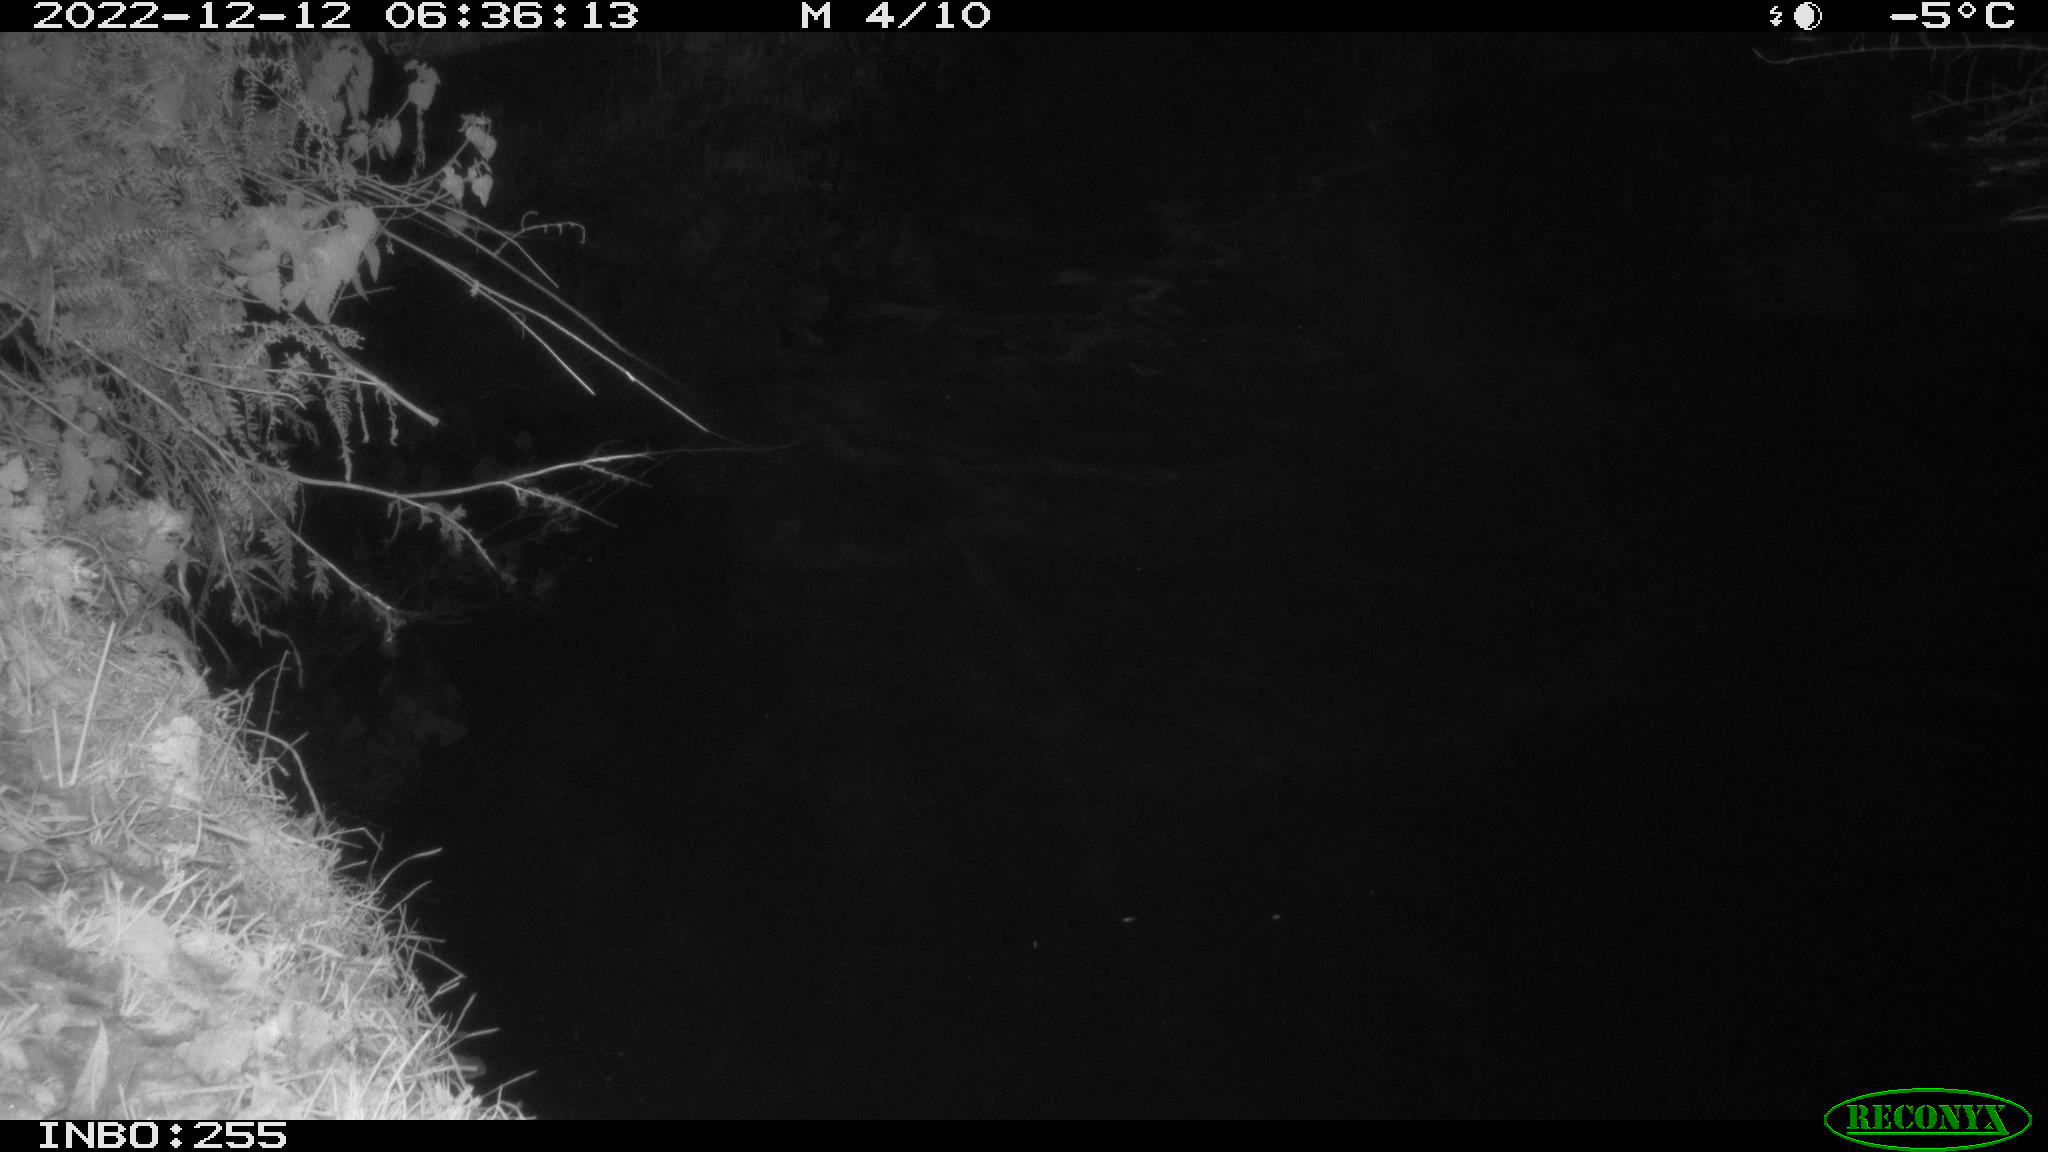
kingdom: Animalia
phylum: Chordata
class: Aves
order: Anseriformes
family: Anatidae
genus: Anas
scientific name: Anas
